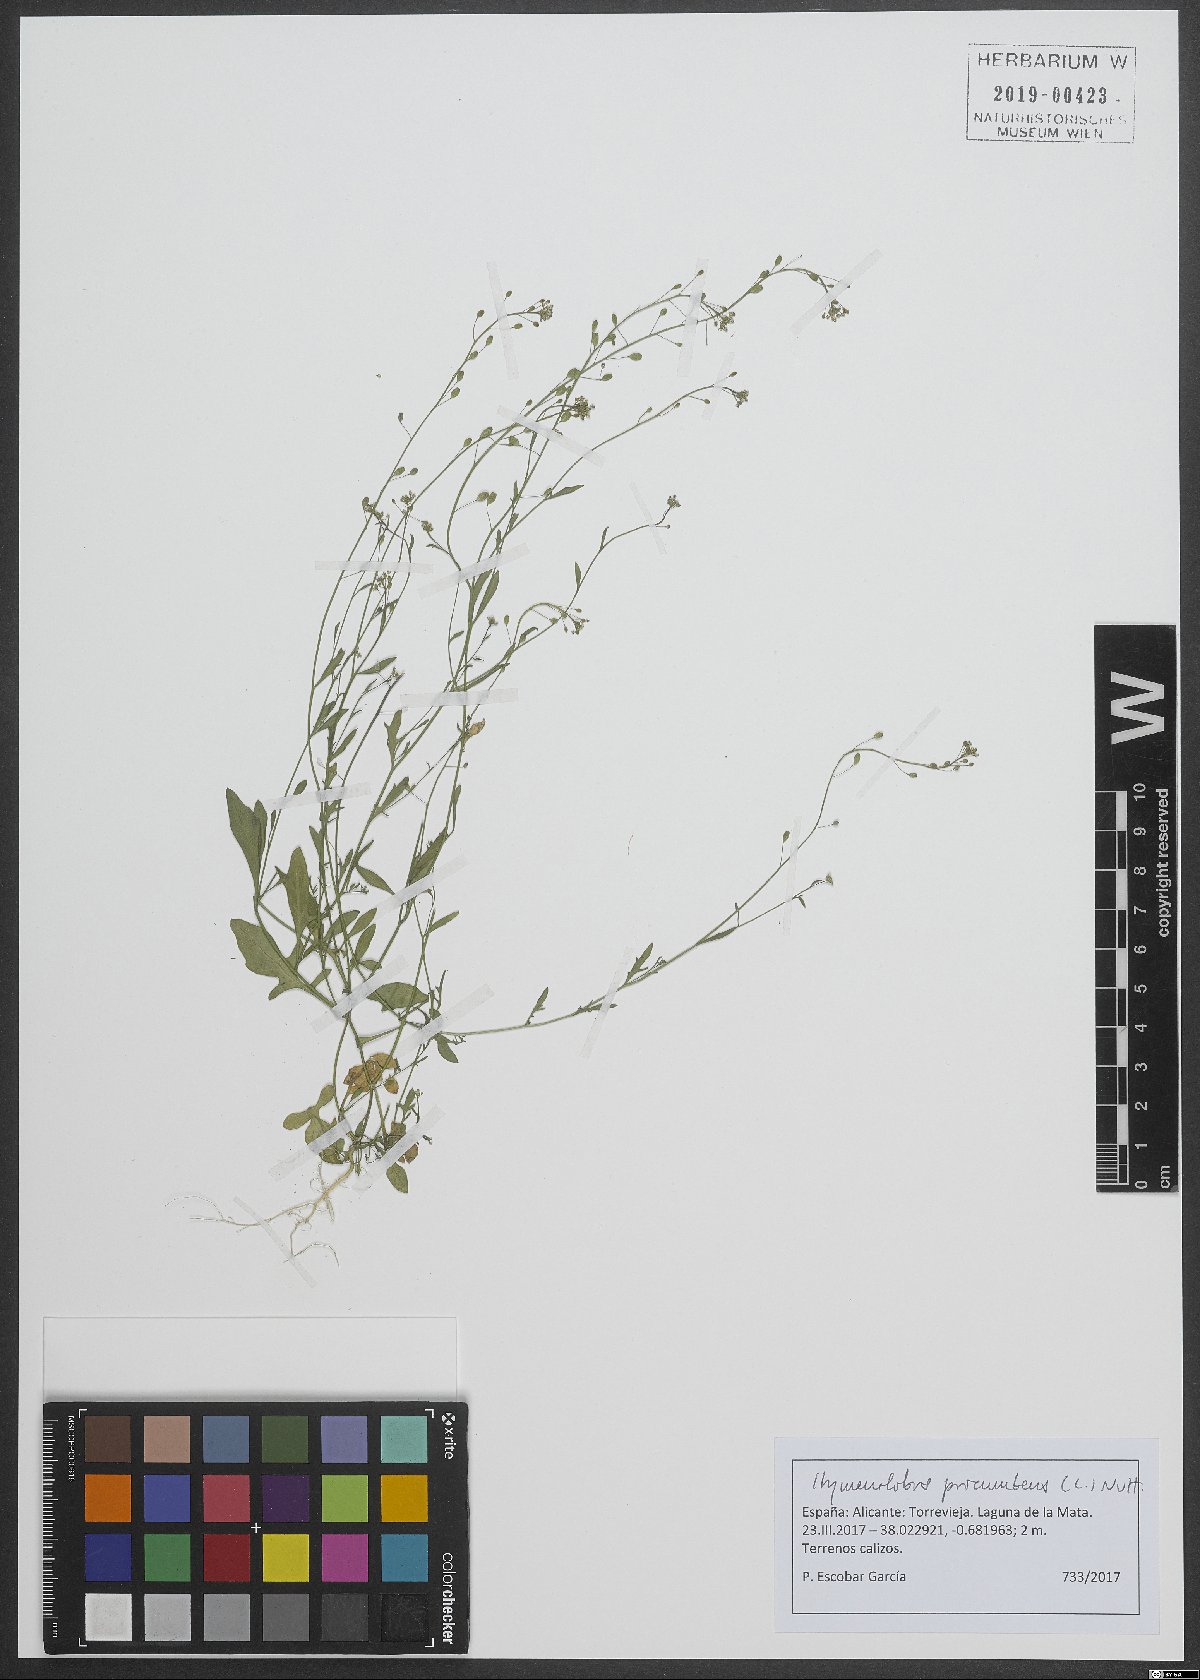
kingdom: Plantae
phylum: Tracheophyta
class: Magnoliopsida
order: Brassicales
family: Brassicaceae
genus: Hornungia
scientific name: Hornungia procumbens
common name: Oval purse
